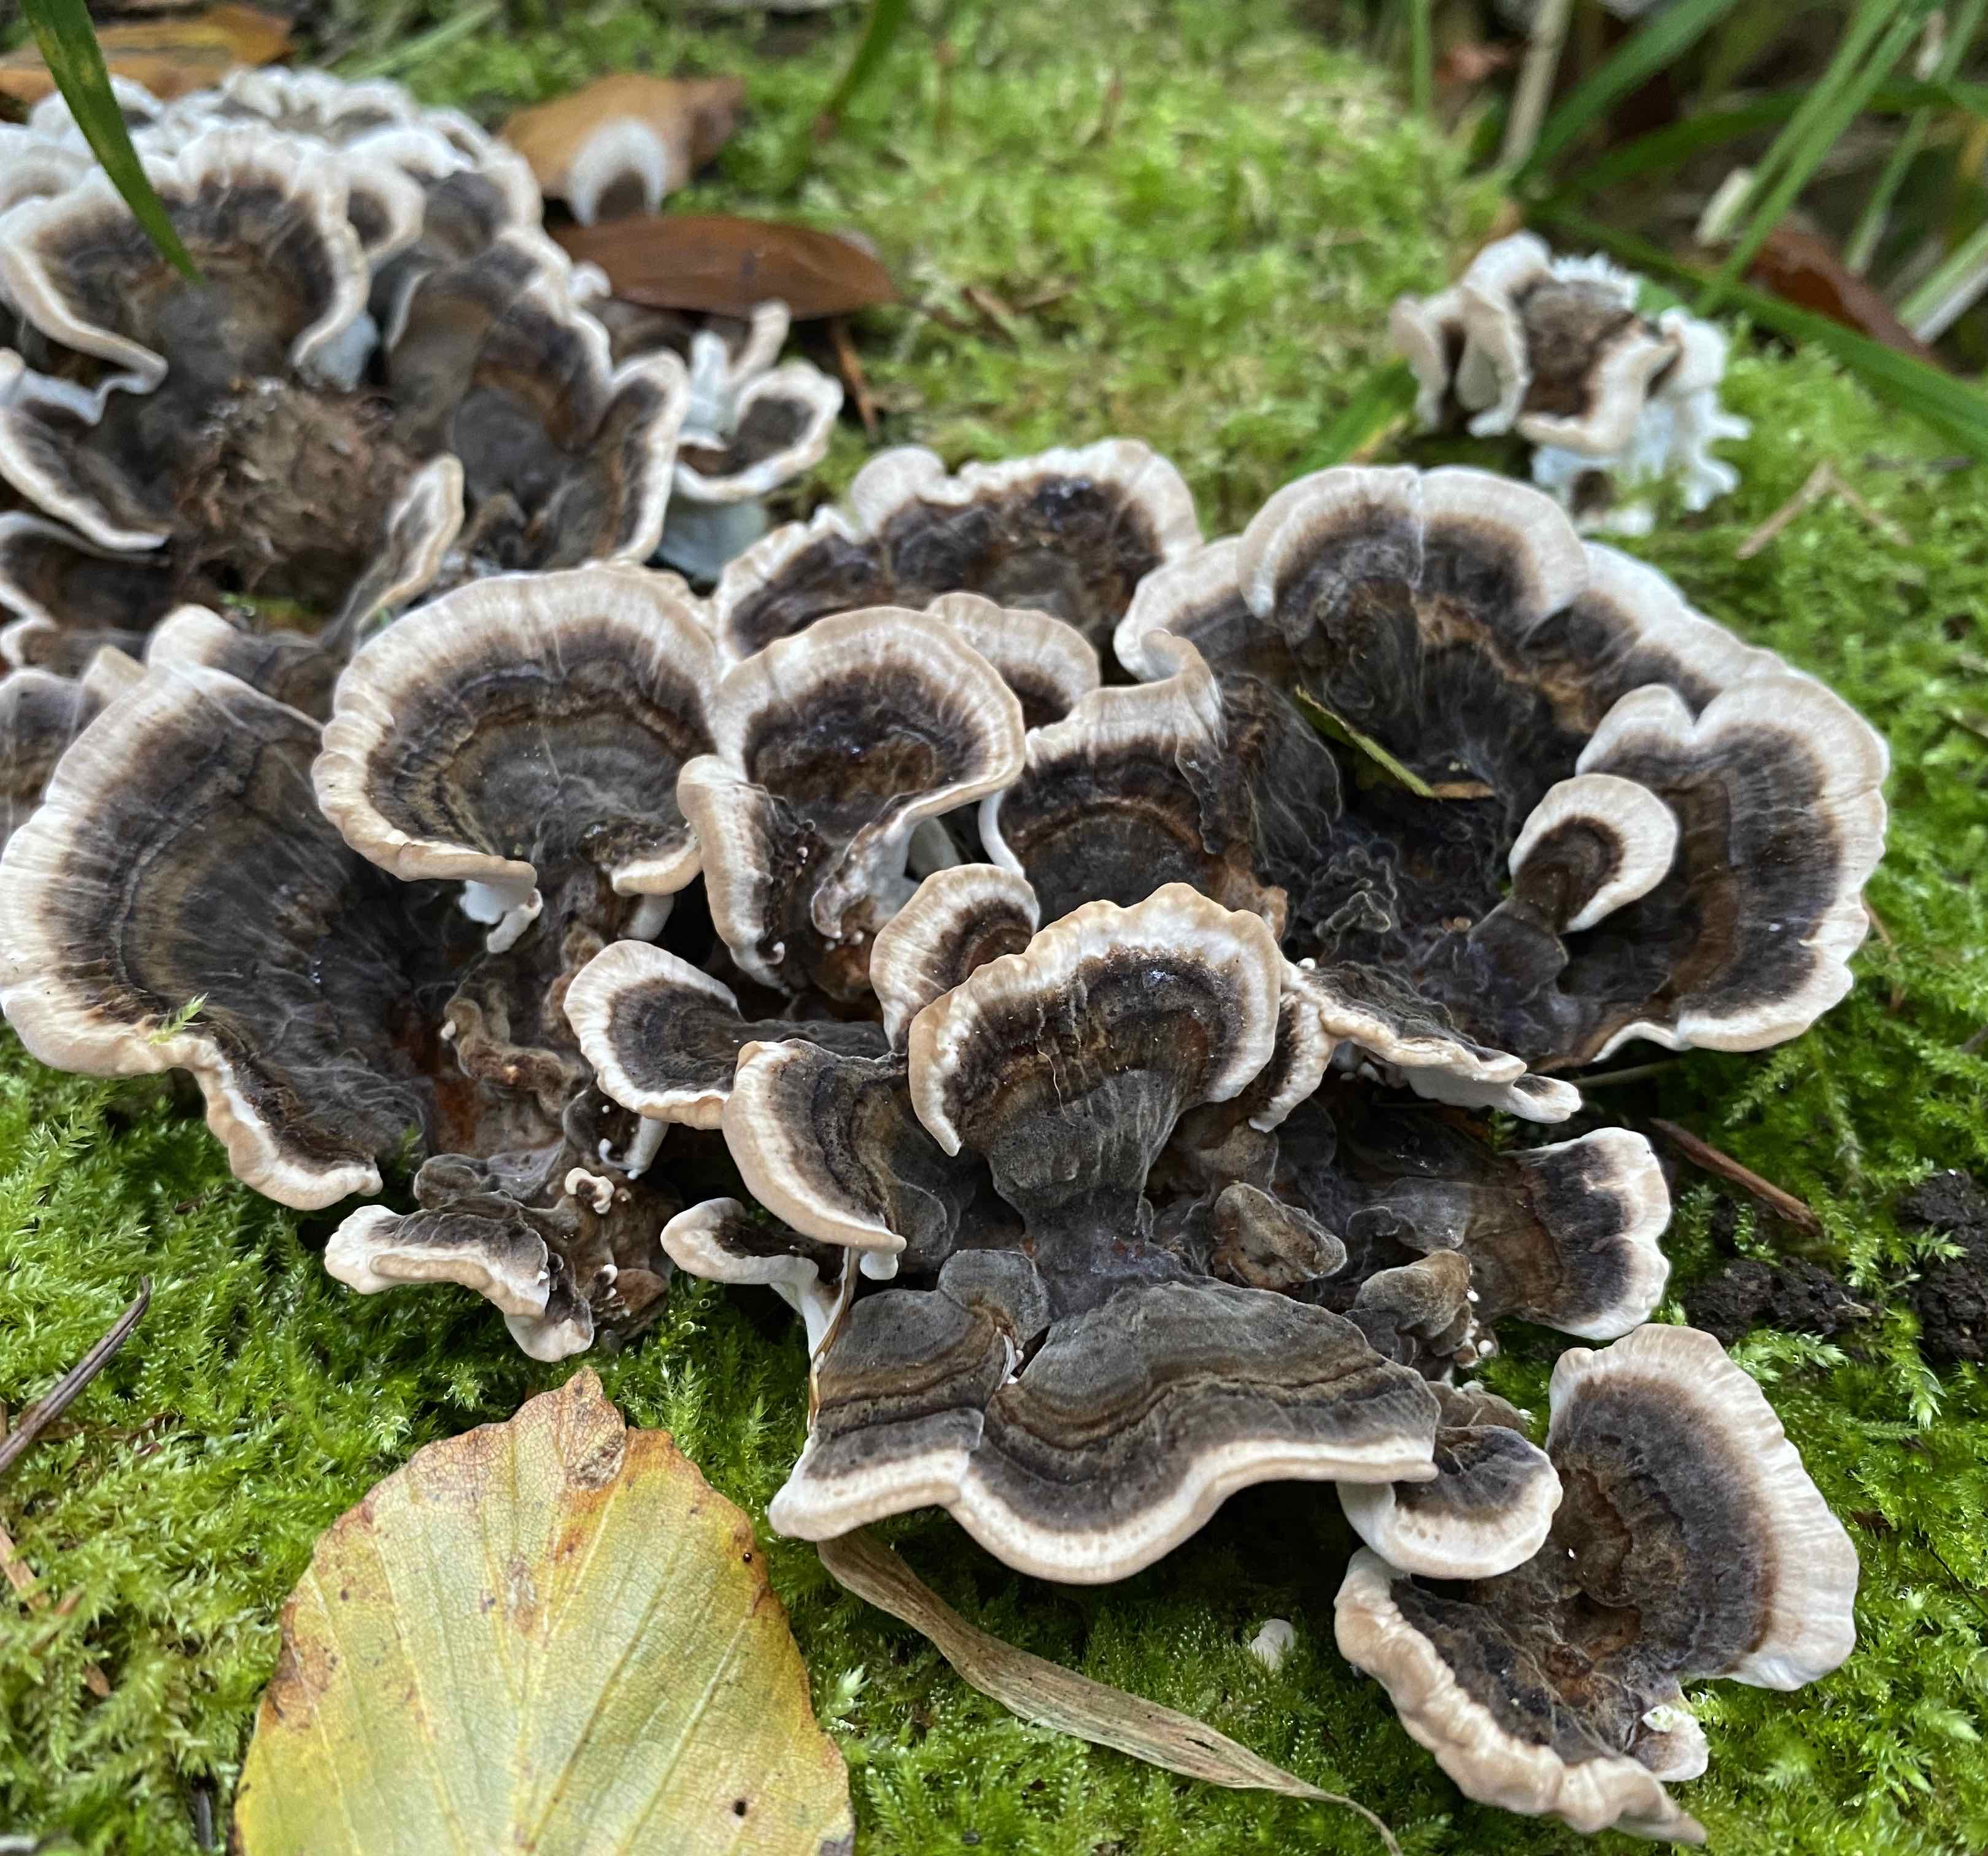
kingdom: Fungi
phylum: Basidiomycota
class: Agaricomycetes
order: Polyporales
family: Polyporaceae
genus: Trametes
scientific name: Trametes versicolor
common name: broget læderporesvamp
